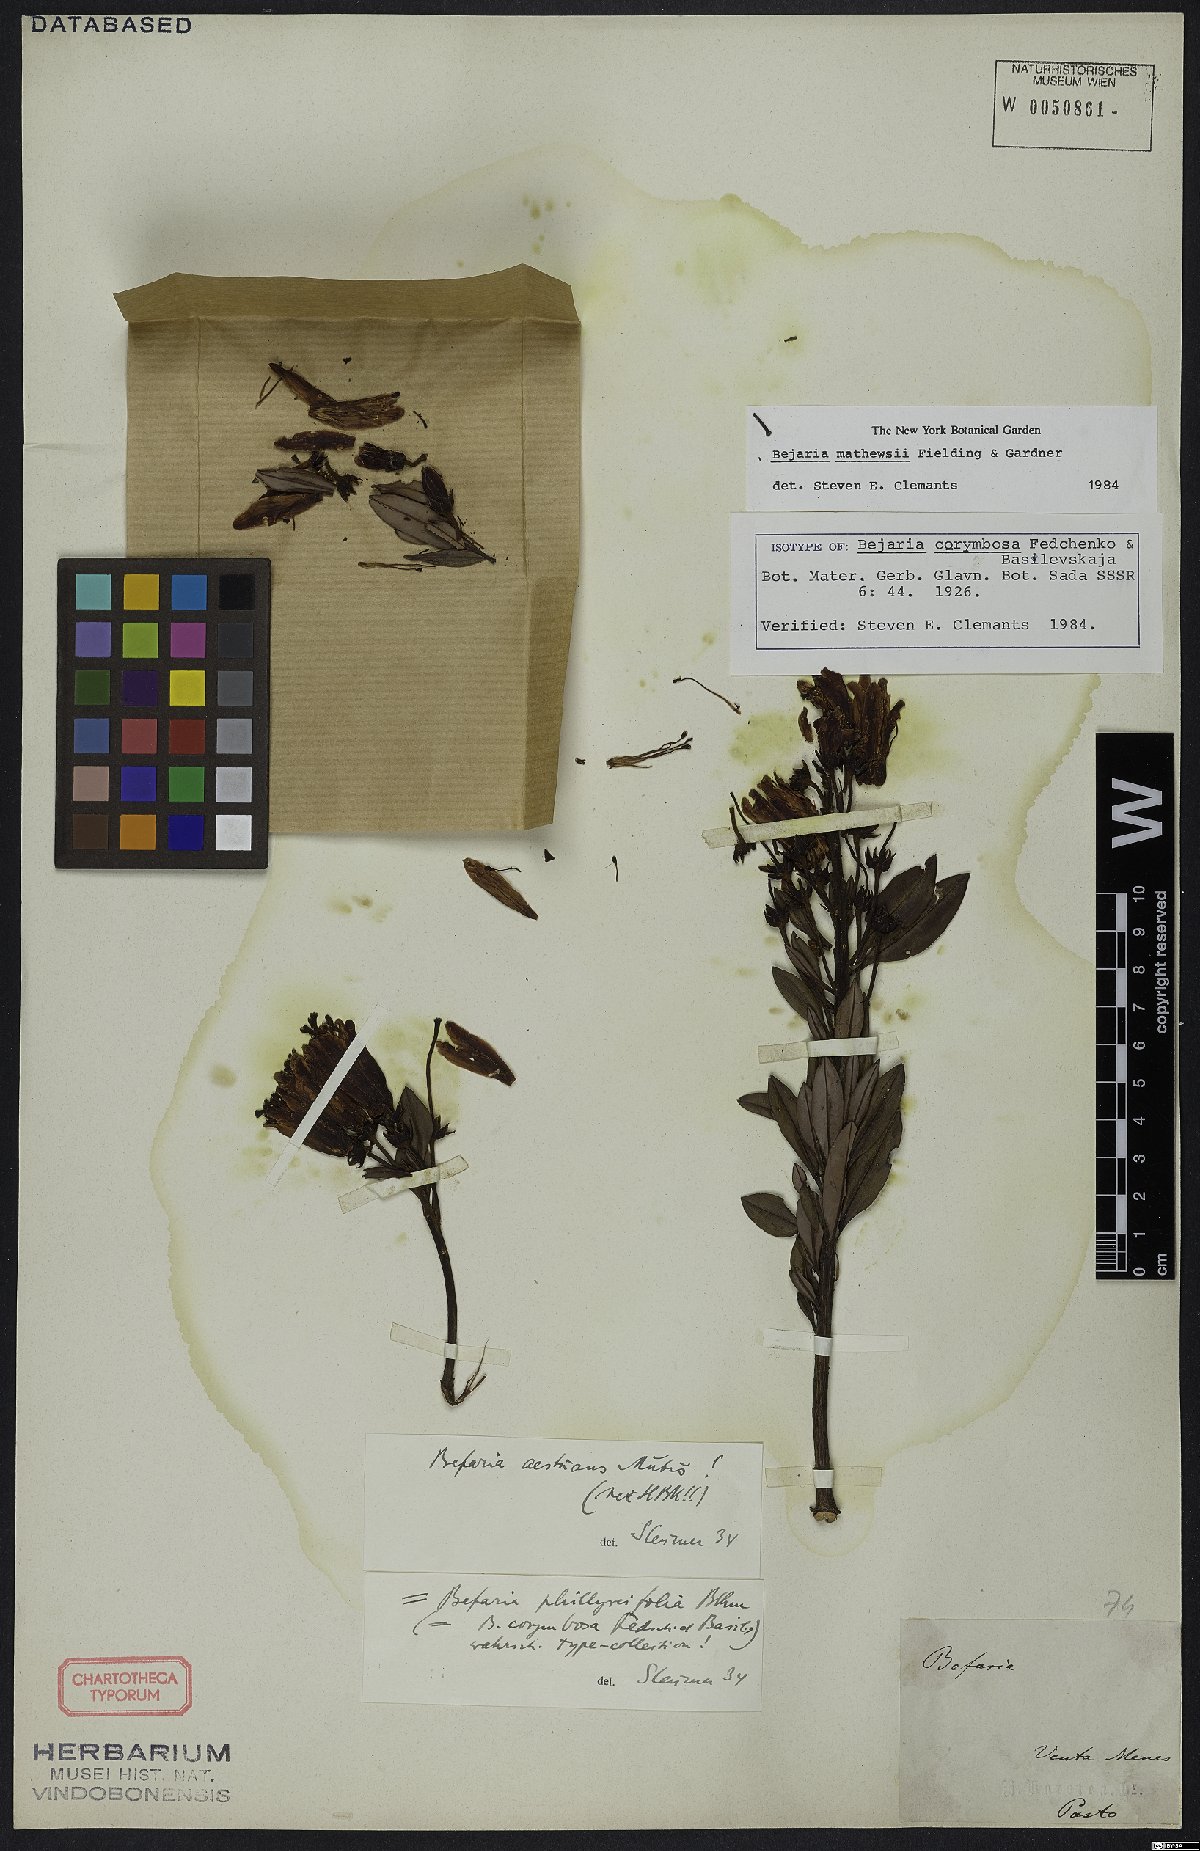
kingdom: Plantae
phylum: Tracheophyta
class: Magnoliopsida
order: Ericales
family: Ericaceae
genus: Bejaria
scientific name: Bejaria mathewsii
